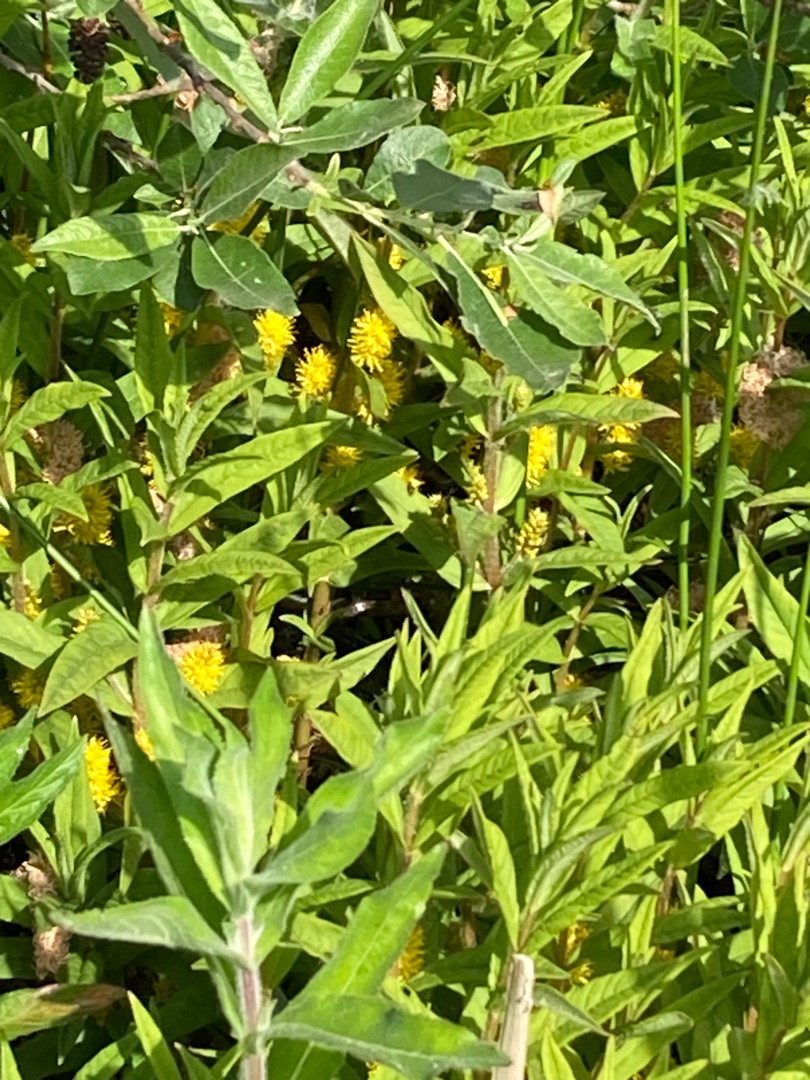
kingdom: Plantae
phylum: Tracheophyta
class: Magnoliopsida
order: Ericales
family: Primulaceae
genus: Lysimachia
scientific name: Lysimachia thyrsiflora
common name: Dusk-fredløs
